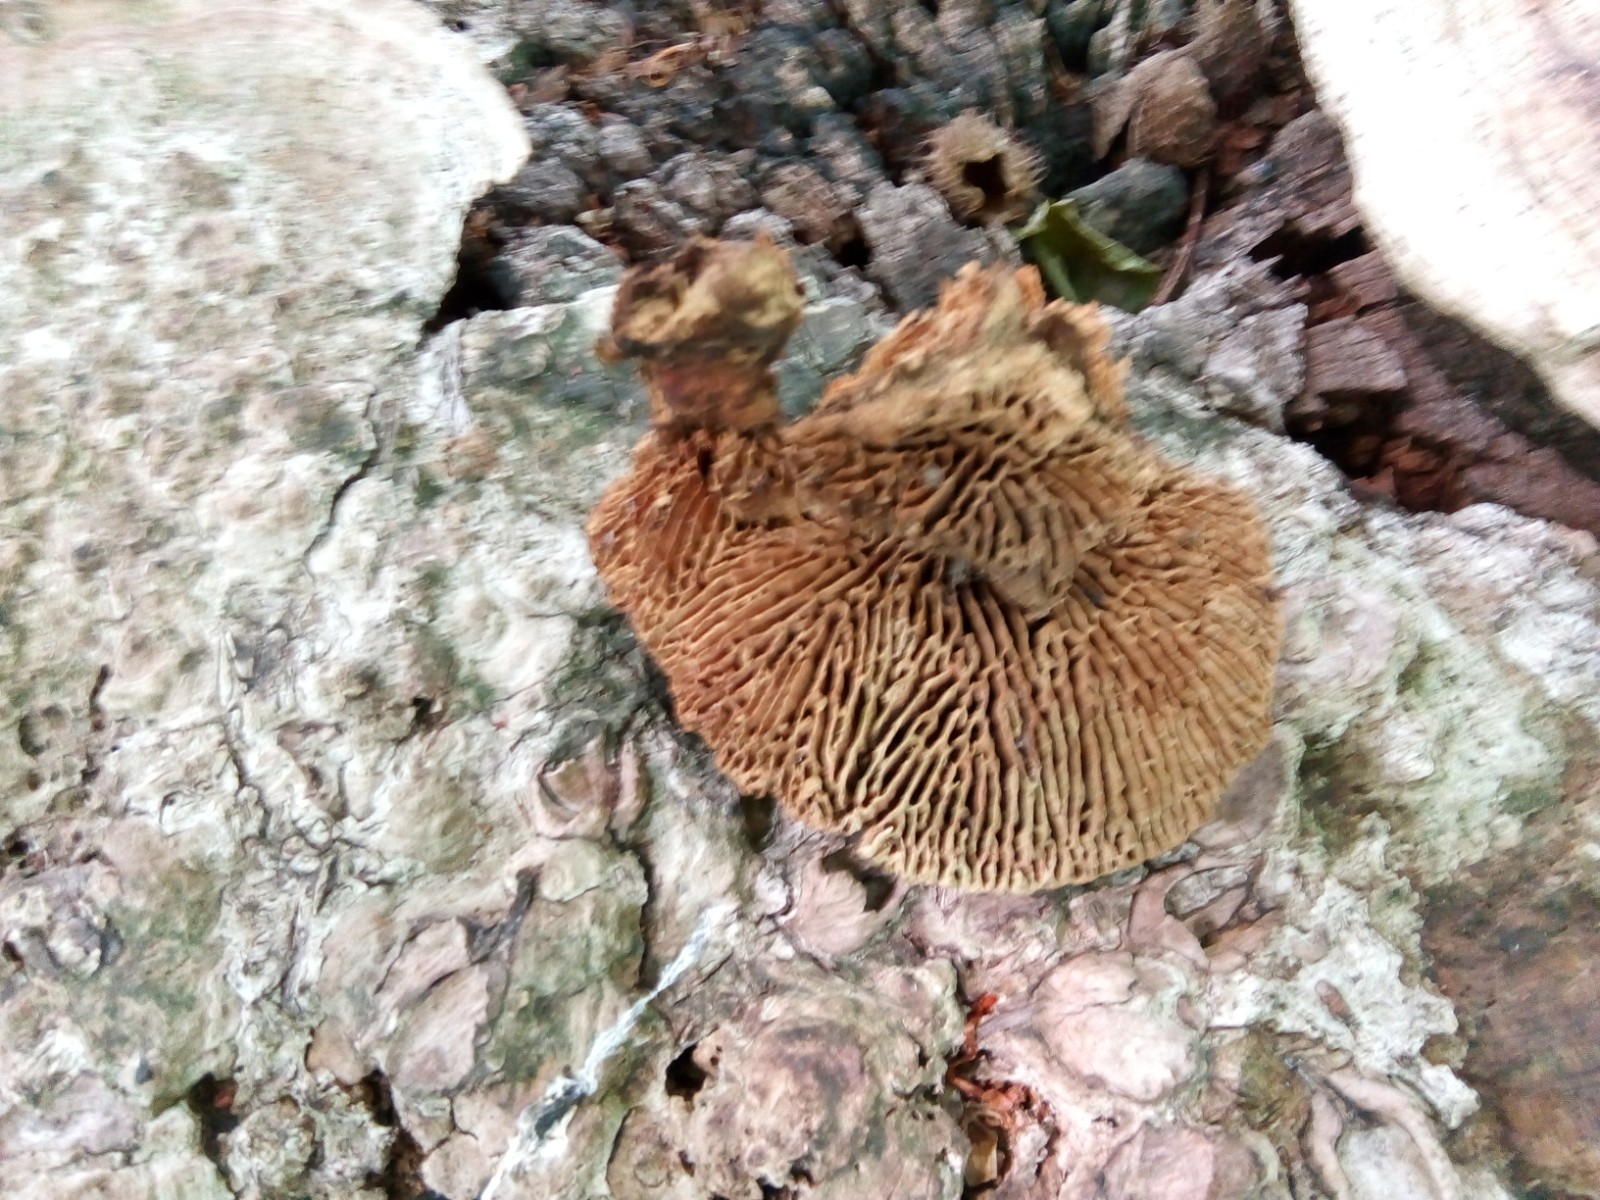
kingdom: Fungi
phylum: Basidiomycota
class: Agaricomycetes
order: Polyporales
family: Fomitopsidaceae
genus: Daedalea
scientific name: Daedalea quercina
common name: ege-labyrintsvamp
